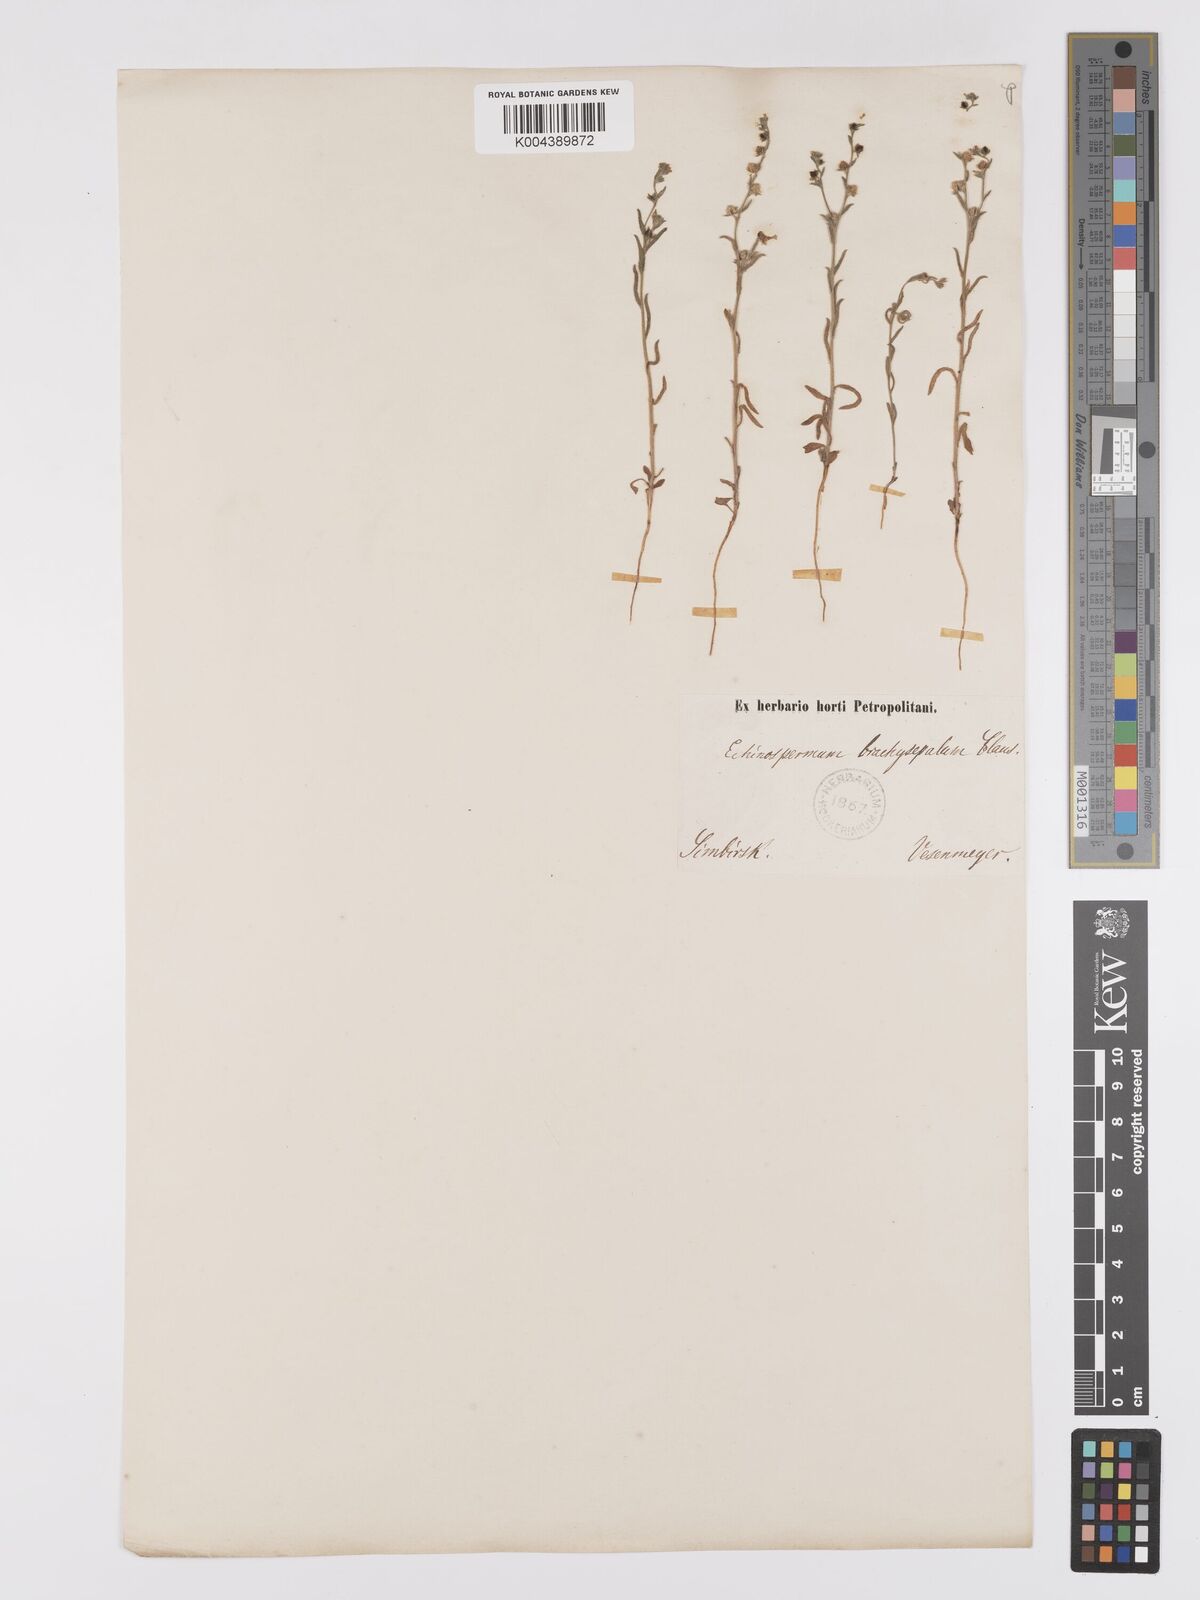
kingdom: Plantae
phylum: Tracheophyta
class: Magnoliopsida
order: Boraginales
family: Boraginaceae
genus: Lappula
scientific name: Lappula
